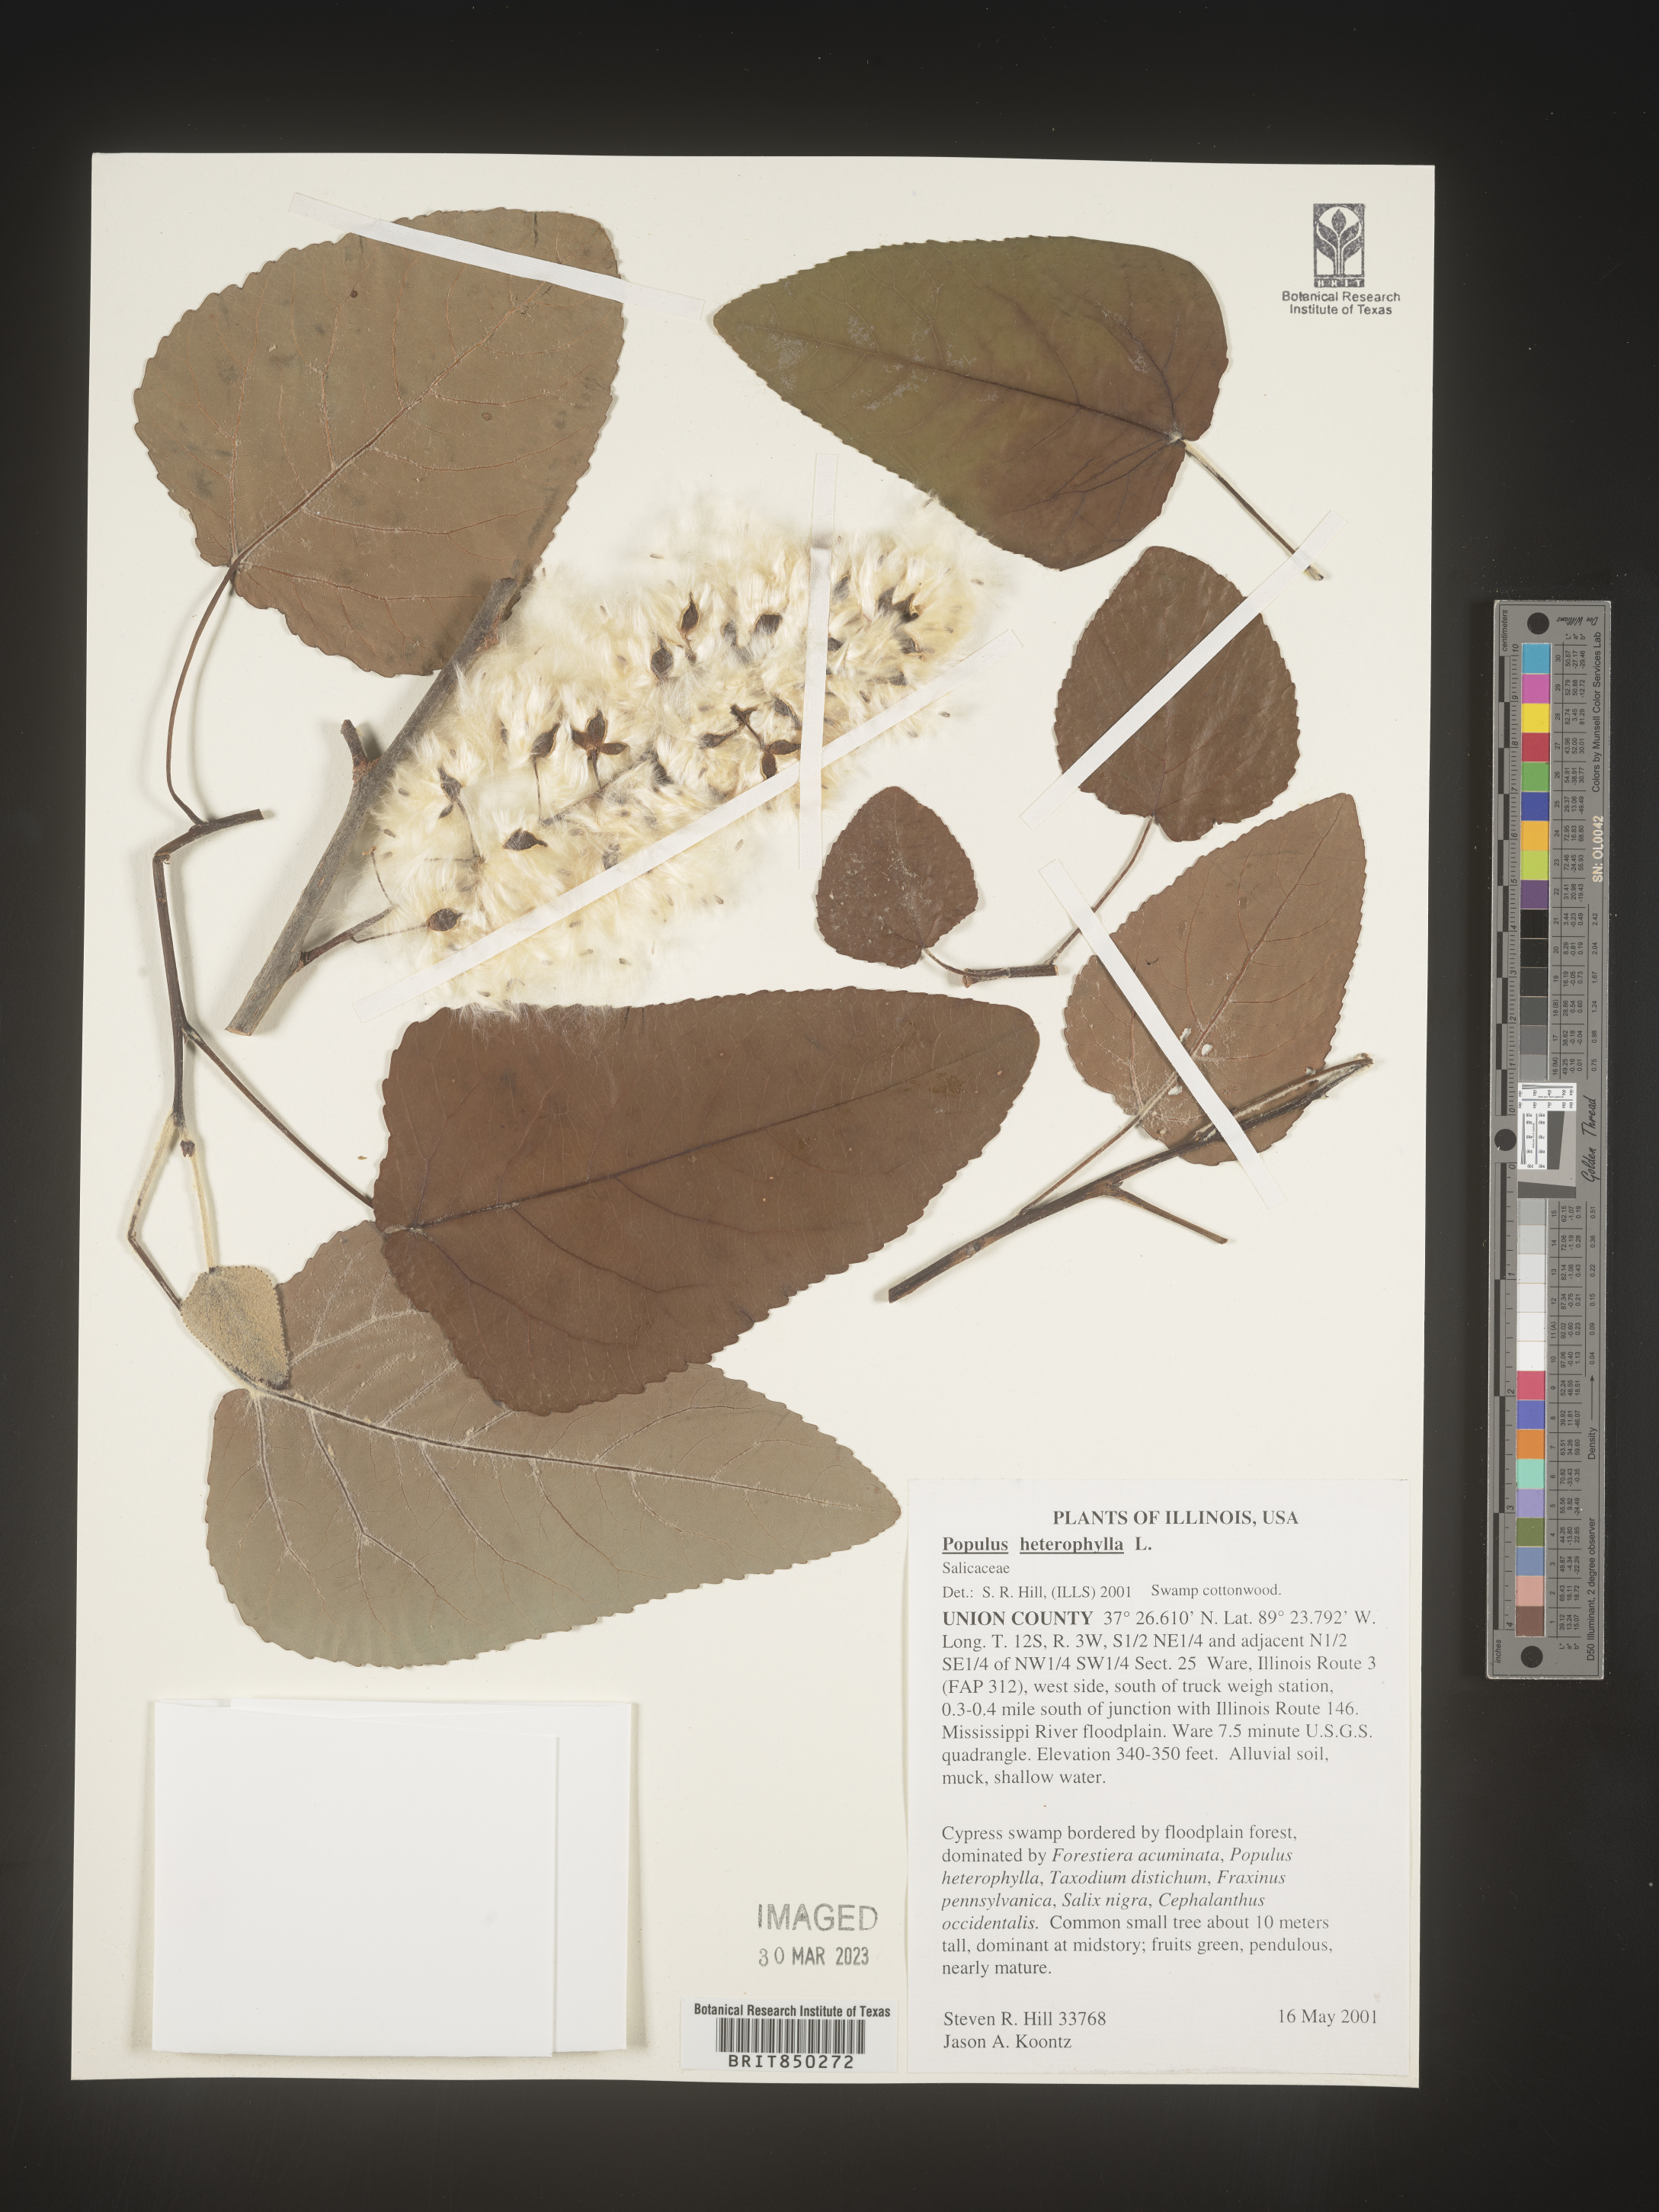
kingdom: Plantae
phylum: Tracheophyta
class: Magnoliopsida
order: Malpighiales
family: Salicaceae
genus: Populus
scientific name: Populus heterophylla
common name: Downy poplar
